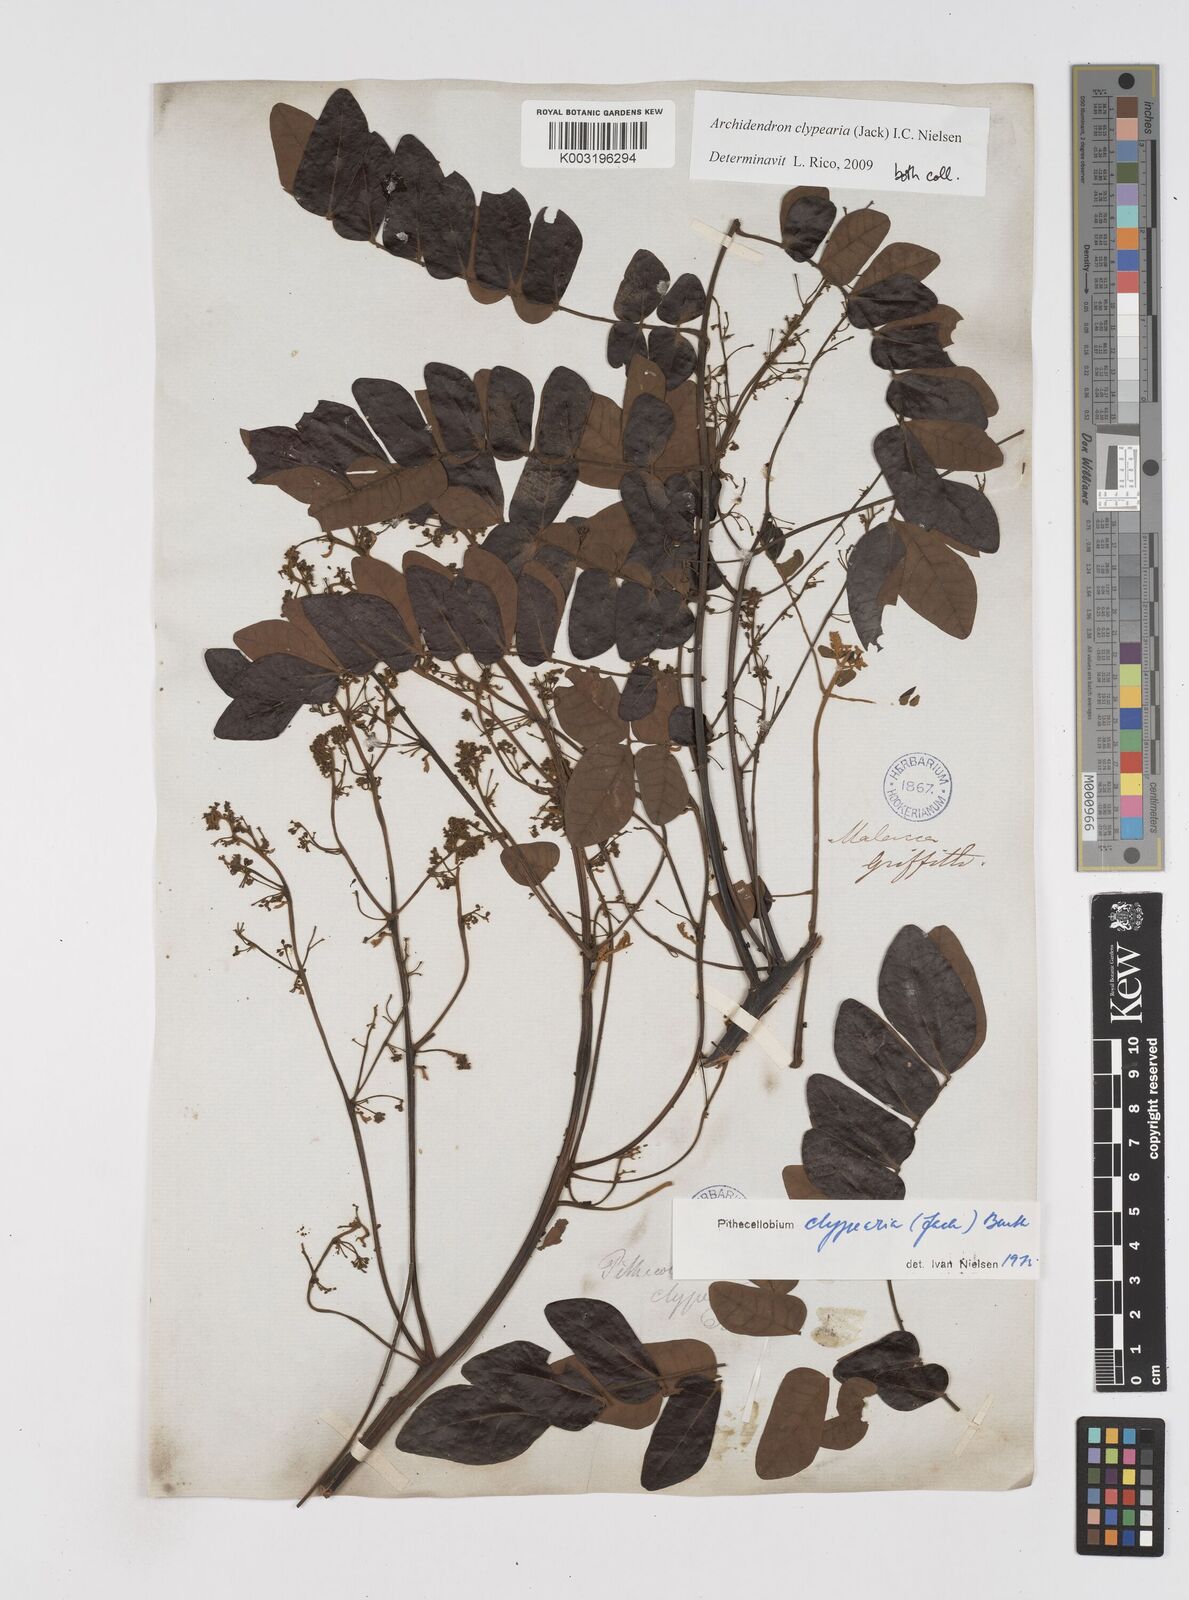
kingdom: Plantae
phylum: Tracheophyta
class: Magnoliopsida
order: Fabales
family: Fabaceae
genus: Archidendron
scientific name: Archidendron clypearia
